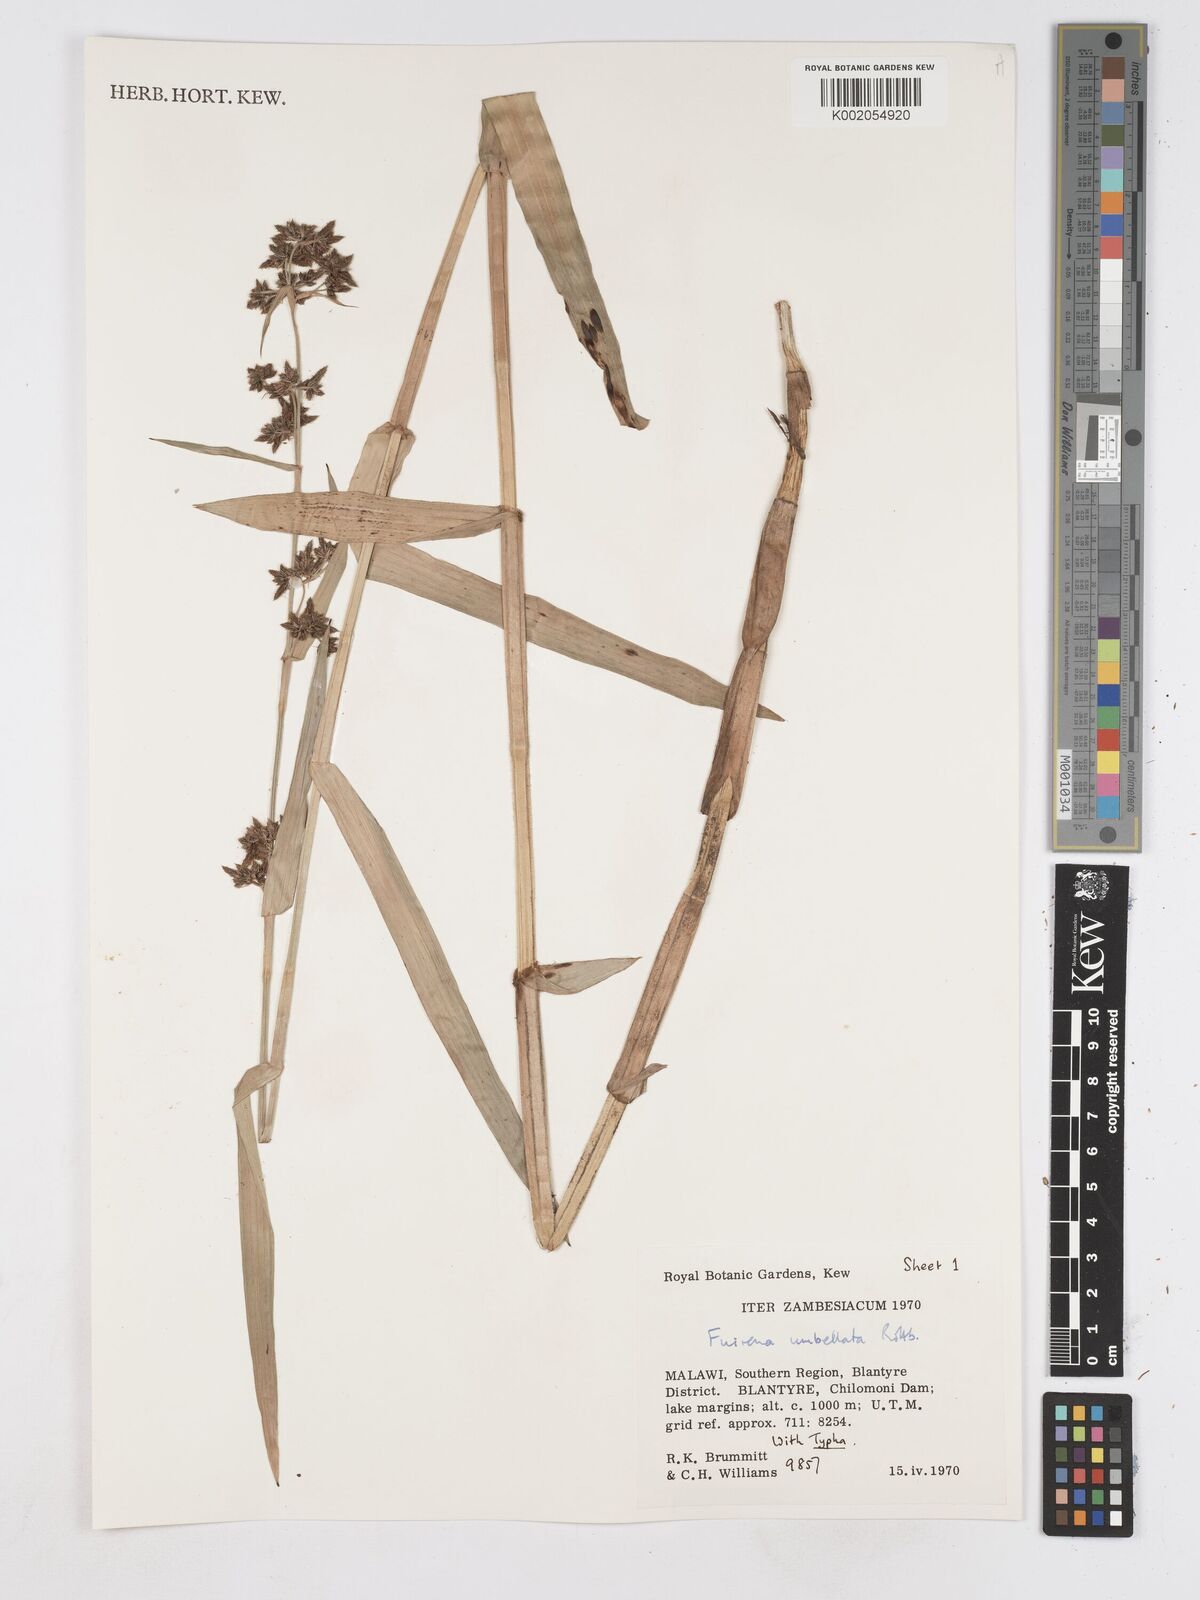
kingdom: Plantae
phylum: Tracheophyta
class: Liliopsida
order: Poales
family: Cyperaceae
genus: Fuirena
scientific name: Fuirena umbellata
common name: Yefen
